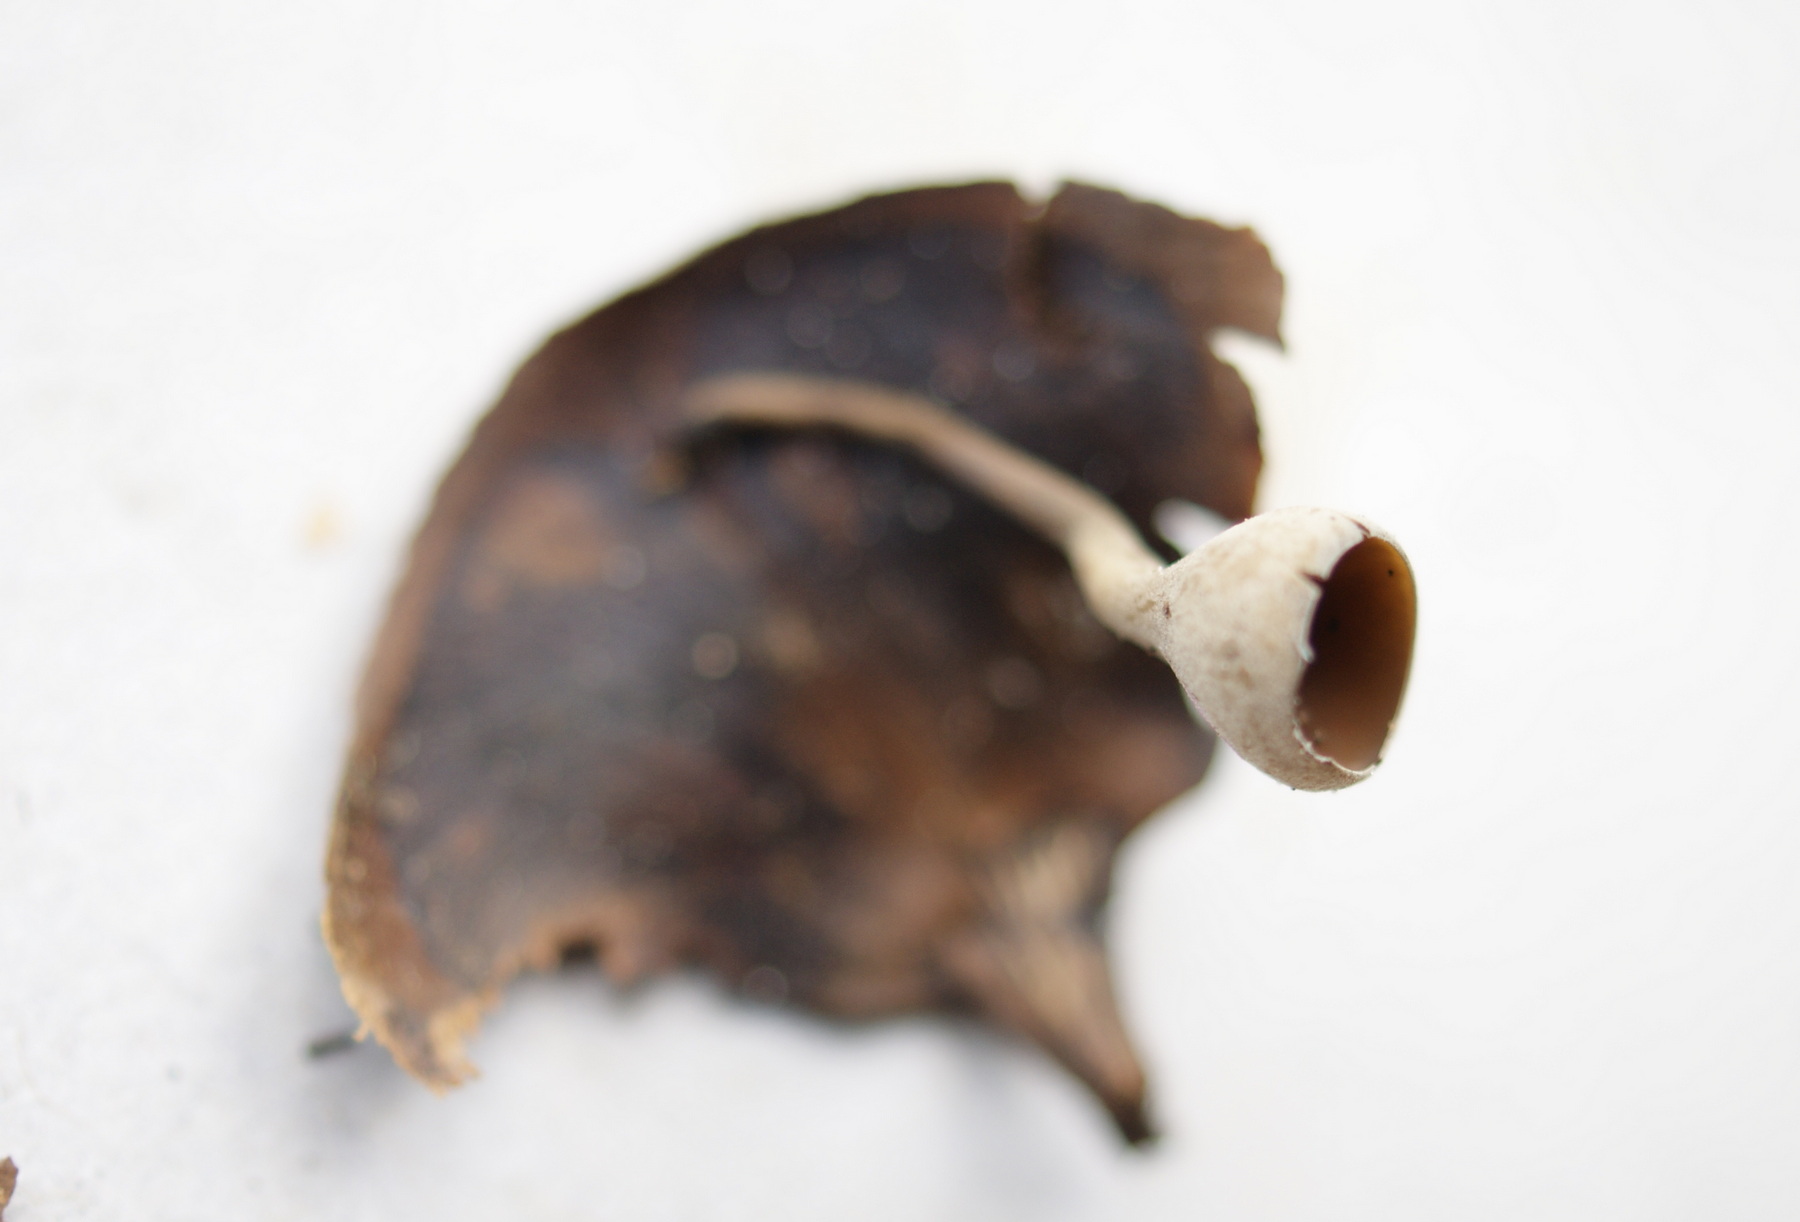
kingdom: Fungi
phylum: Ascomycota
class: Leotiomycetes
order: Helotiales
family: Sclerotiniaceae
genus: Ciboria
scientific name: Ciboria rufofusca
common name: kogleskæl-knoldskive
